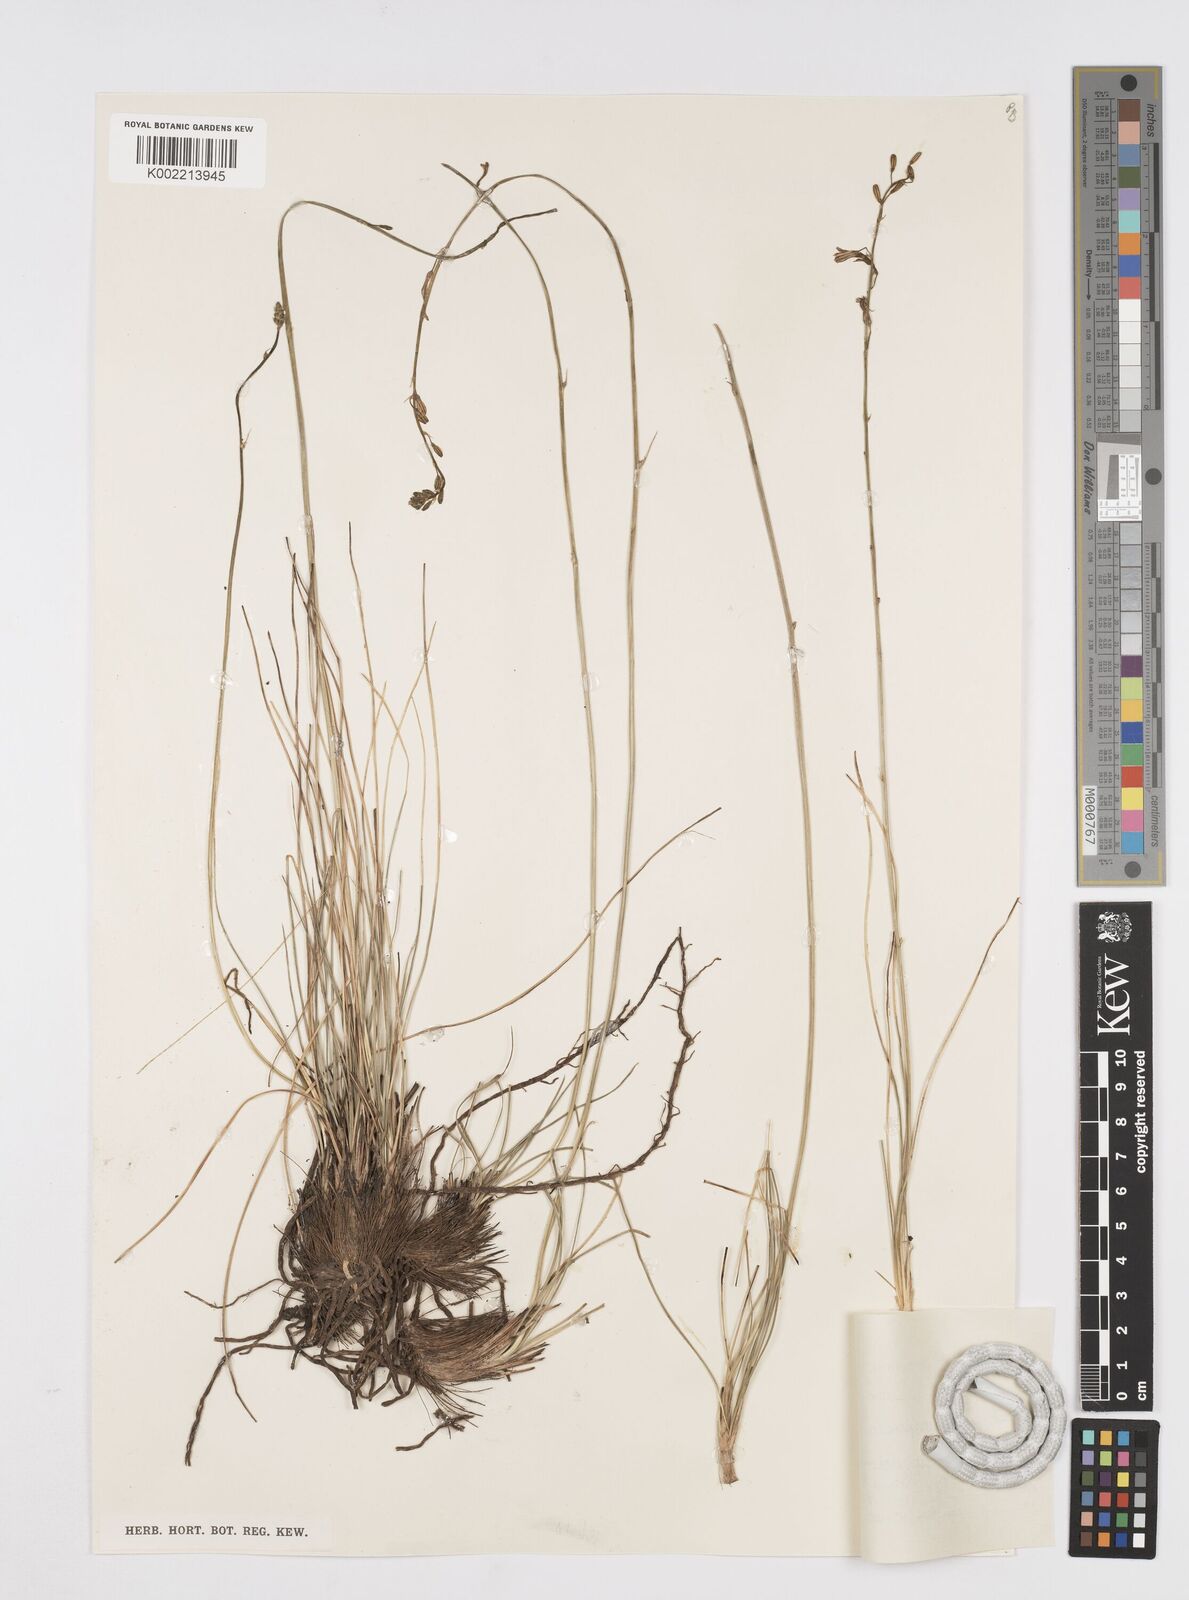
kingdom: Plantae
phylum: Tracheophyta
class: Liliopsida
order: Asparagales
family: Asphodelaceae
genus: Trachyandra
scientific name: Trachyandra asperata
